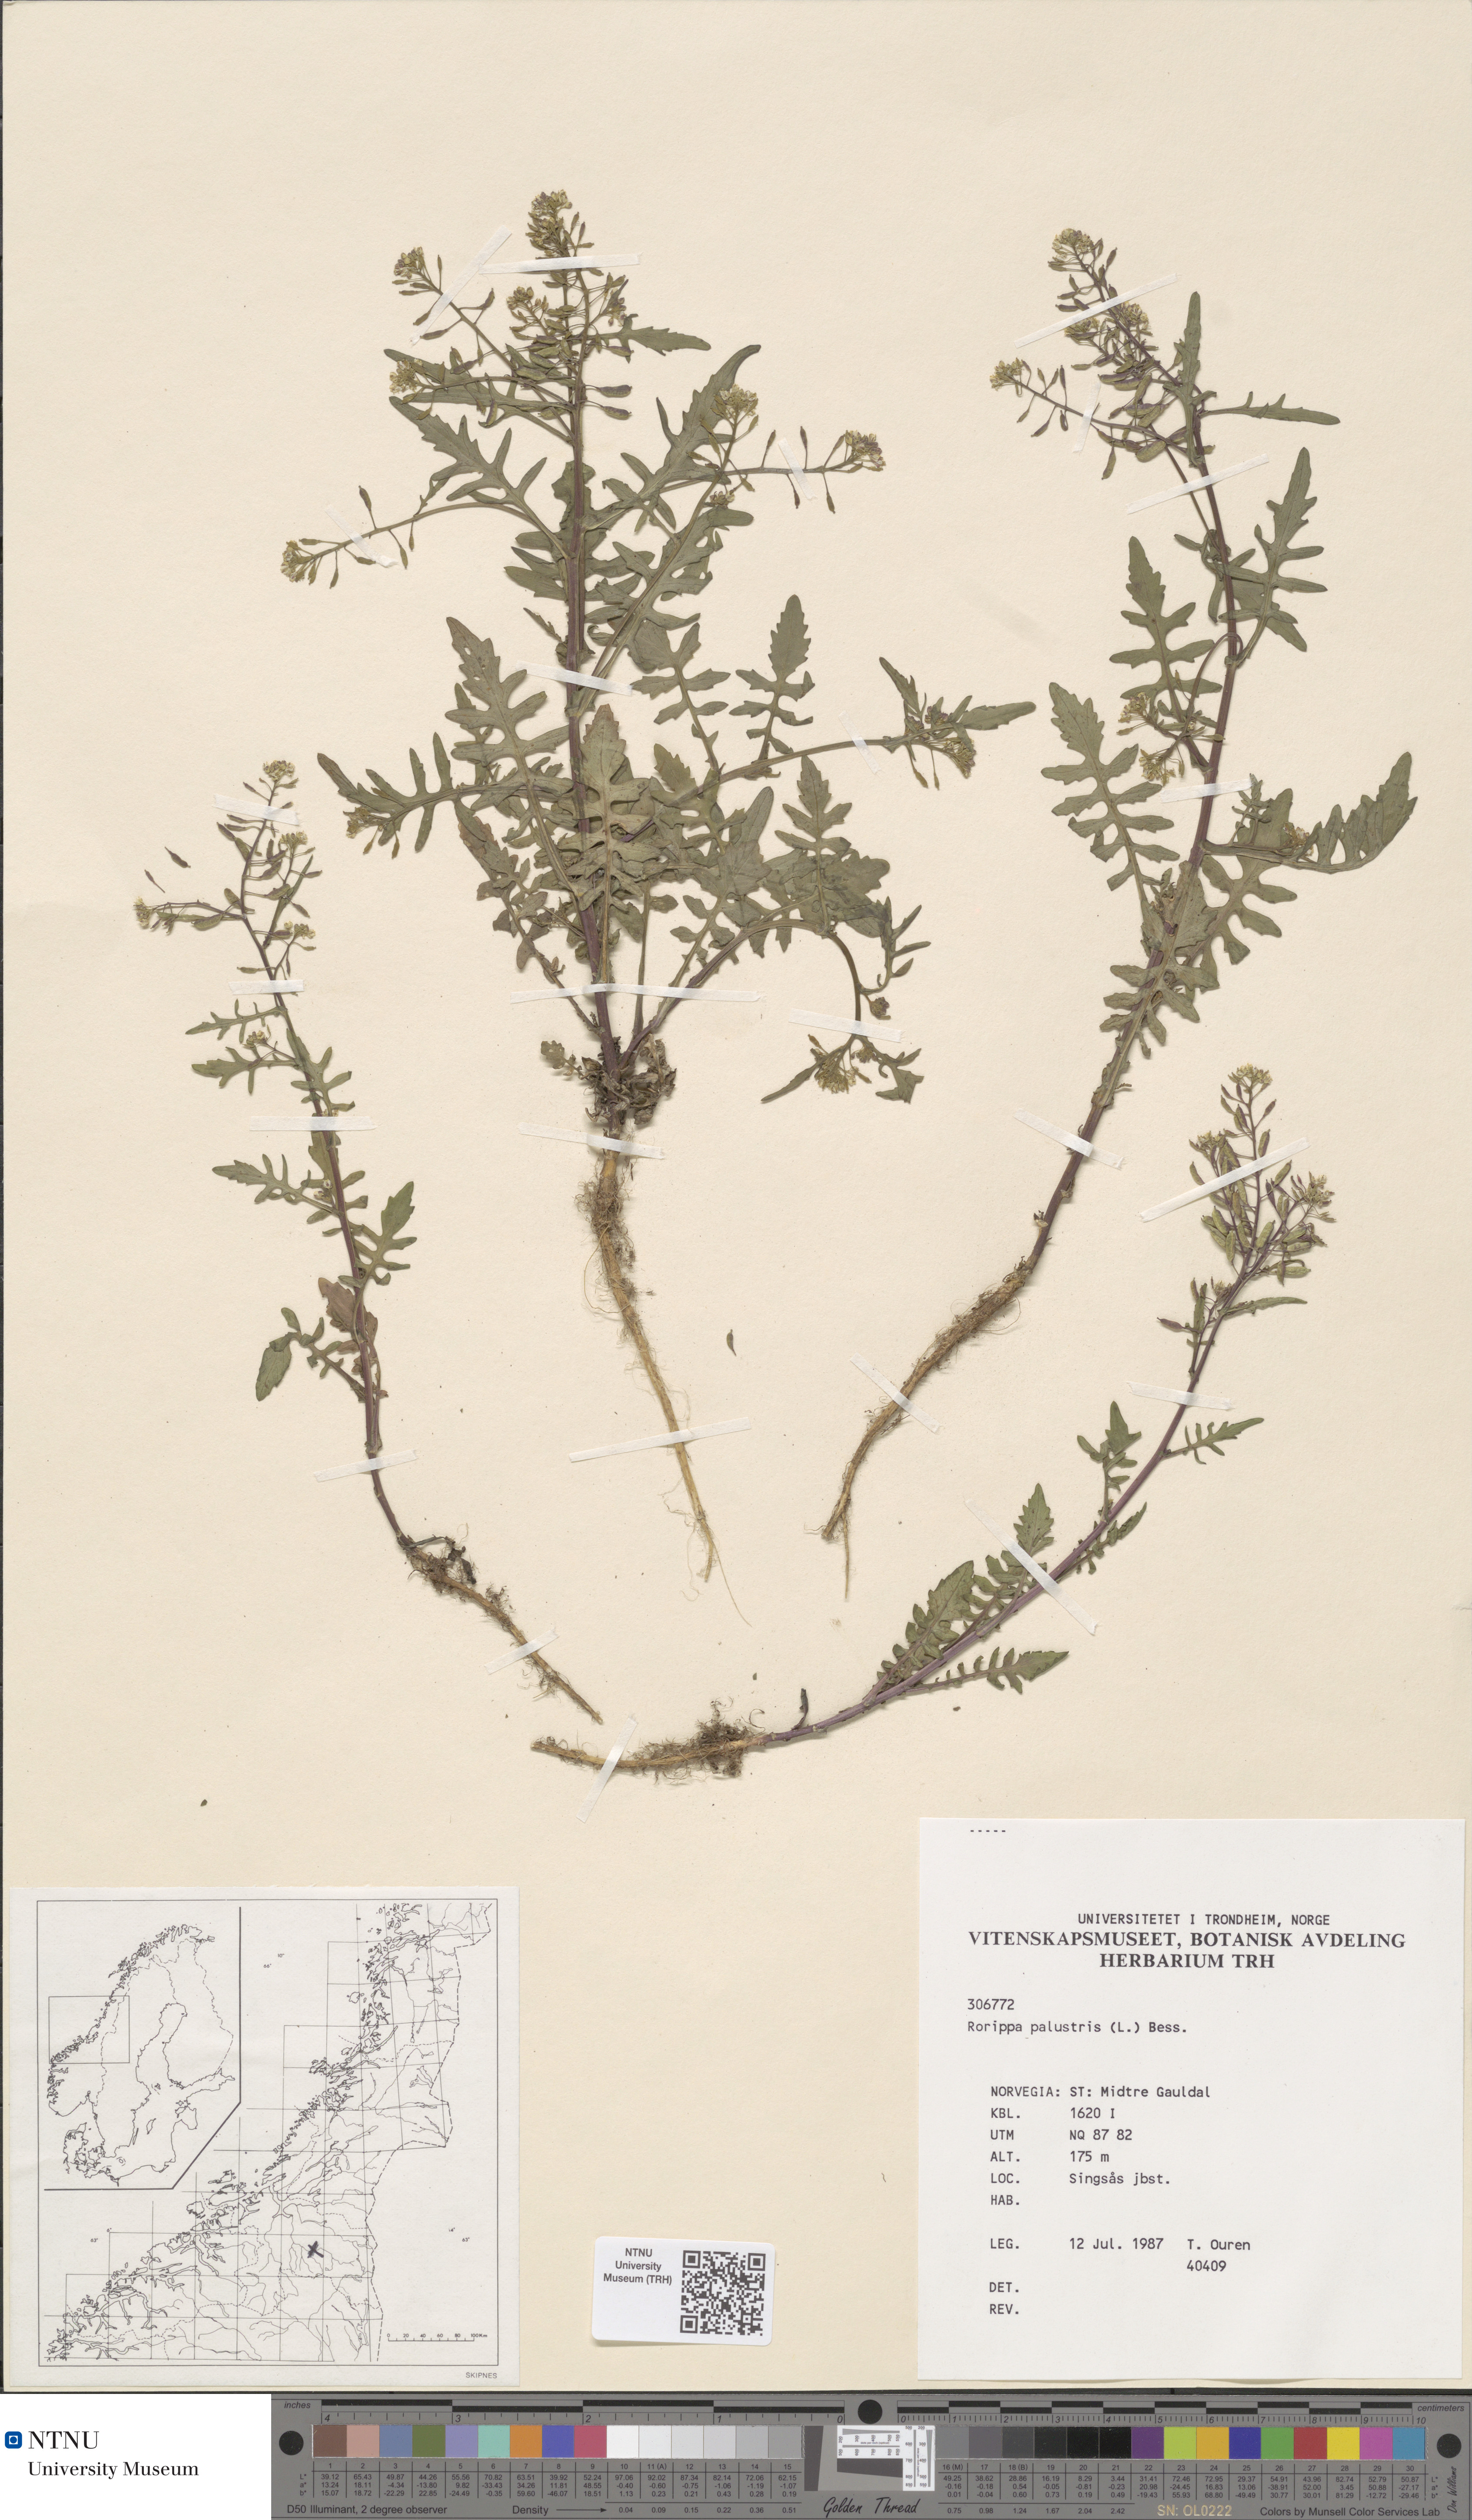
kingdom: Plantae
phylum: Tracheophyta
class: Magnoliopsida
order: Brassicales
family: Brassicaceae
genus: Rorippa
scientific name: Rorippa palustris
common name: Marsh yellow-cress
